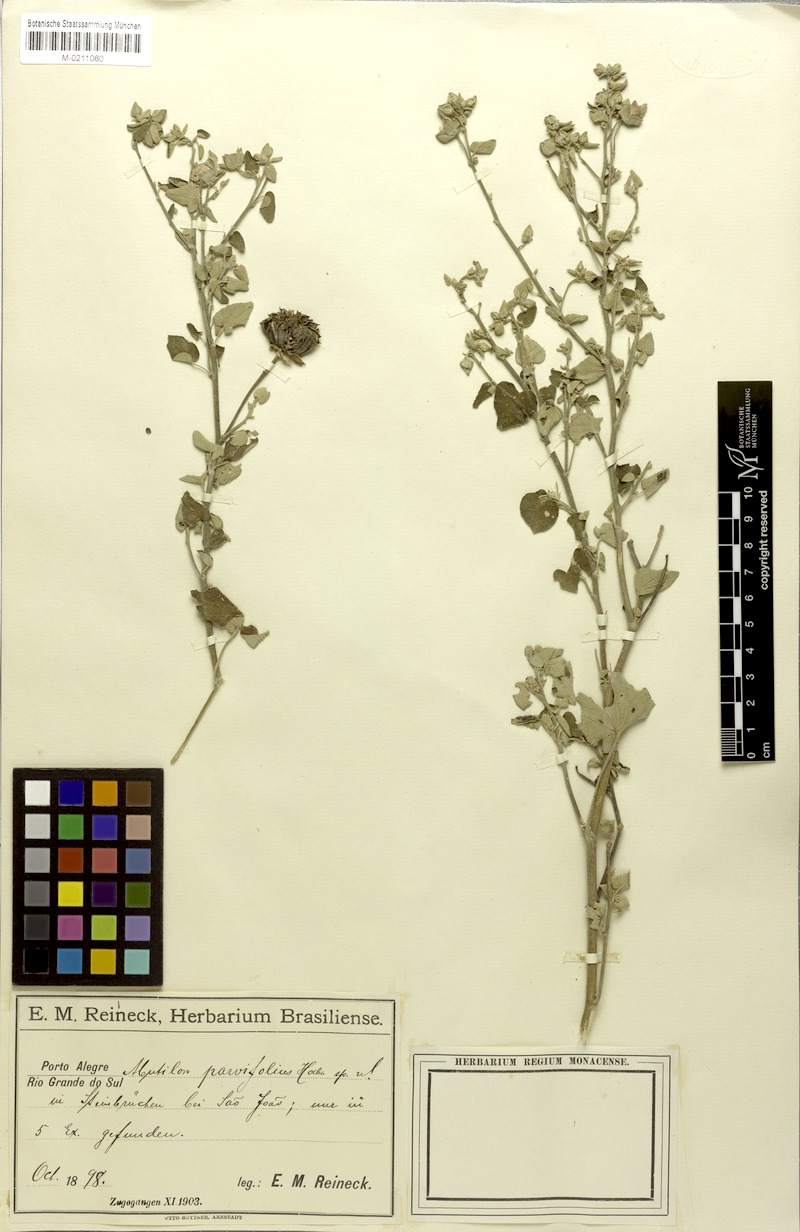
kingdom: Plantae
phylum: Tracheophyta
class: Magnoliopsida
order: Malvales
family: Malvaceae
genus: Callianthe
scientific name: Callianthe pauciflora
